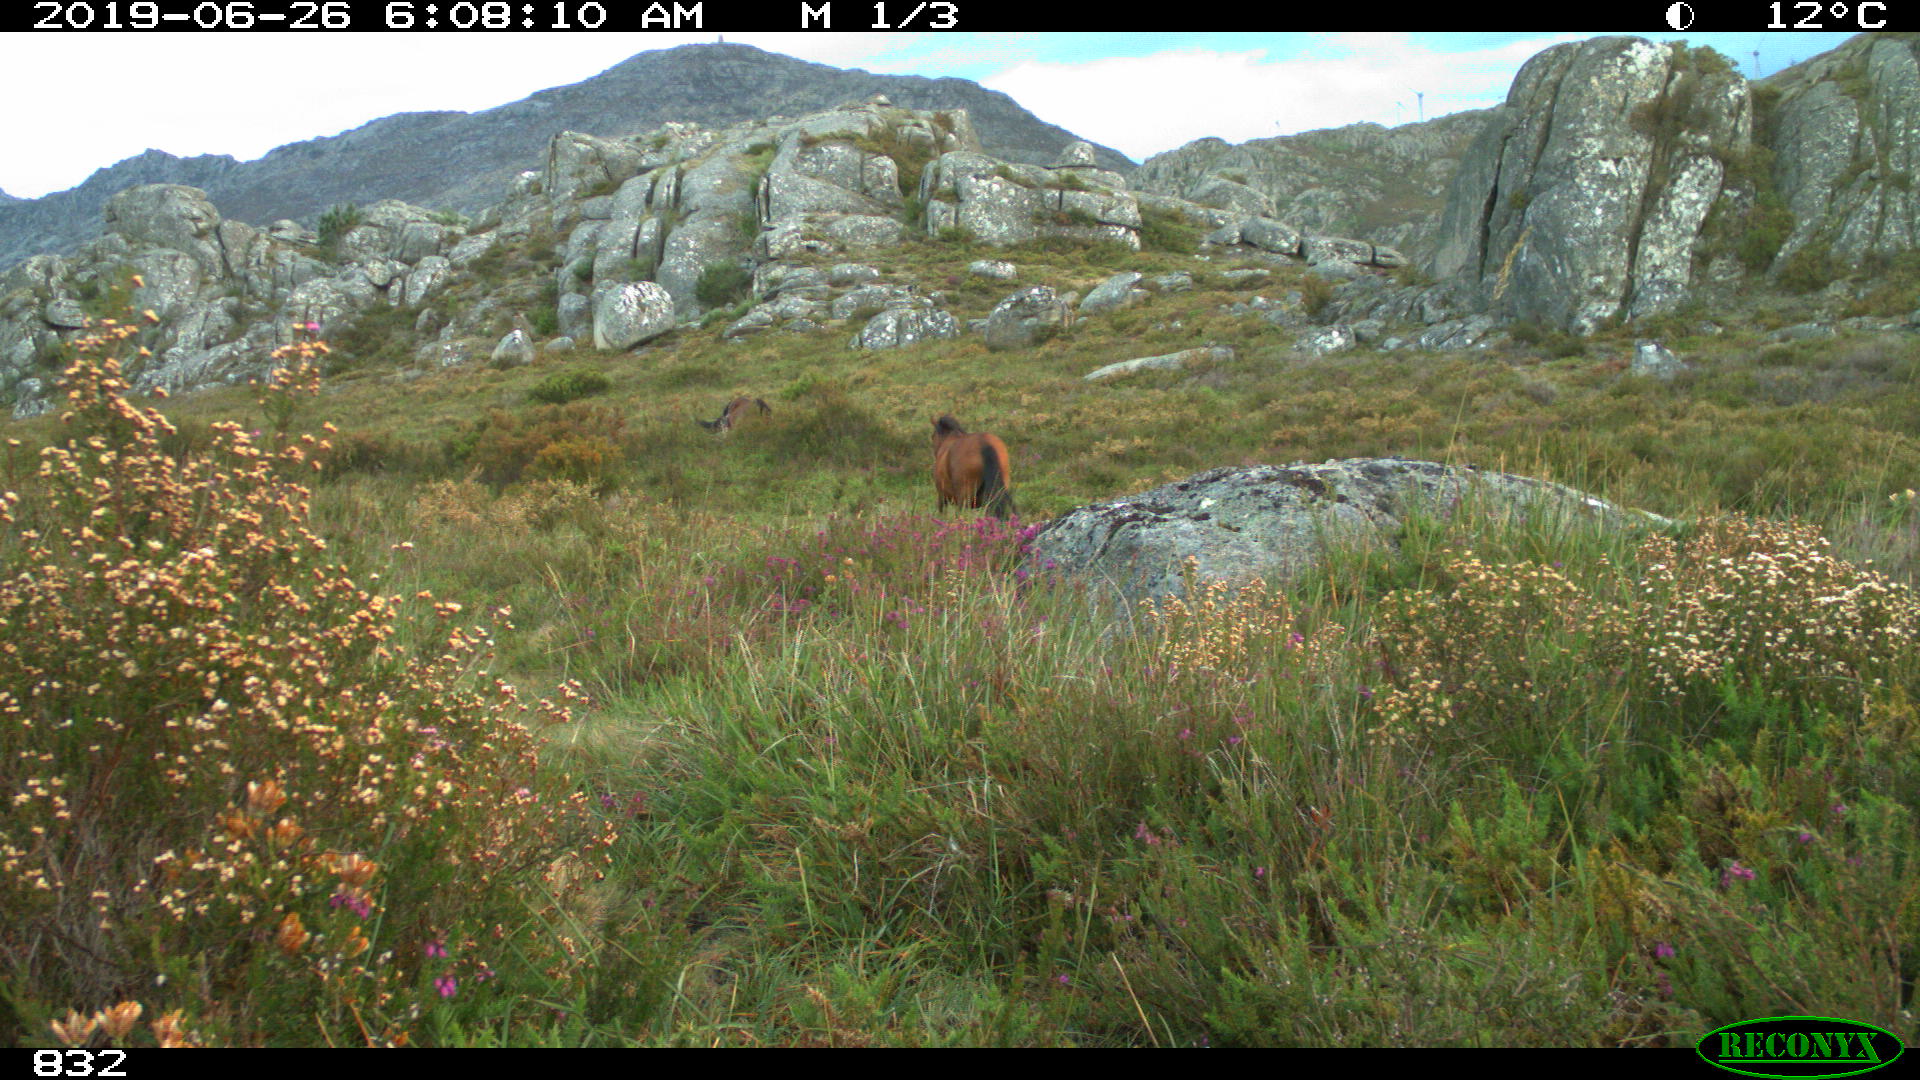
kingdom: Animalia
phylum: Chordata
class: Mammalia
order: Perissodactyla
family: Equidae
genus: Equus
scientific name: Equus caballus
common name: Horse
